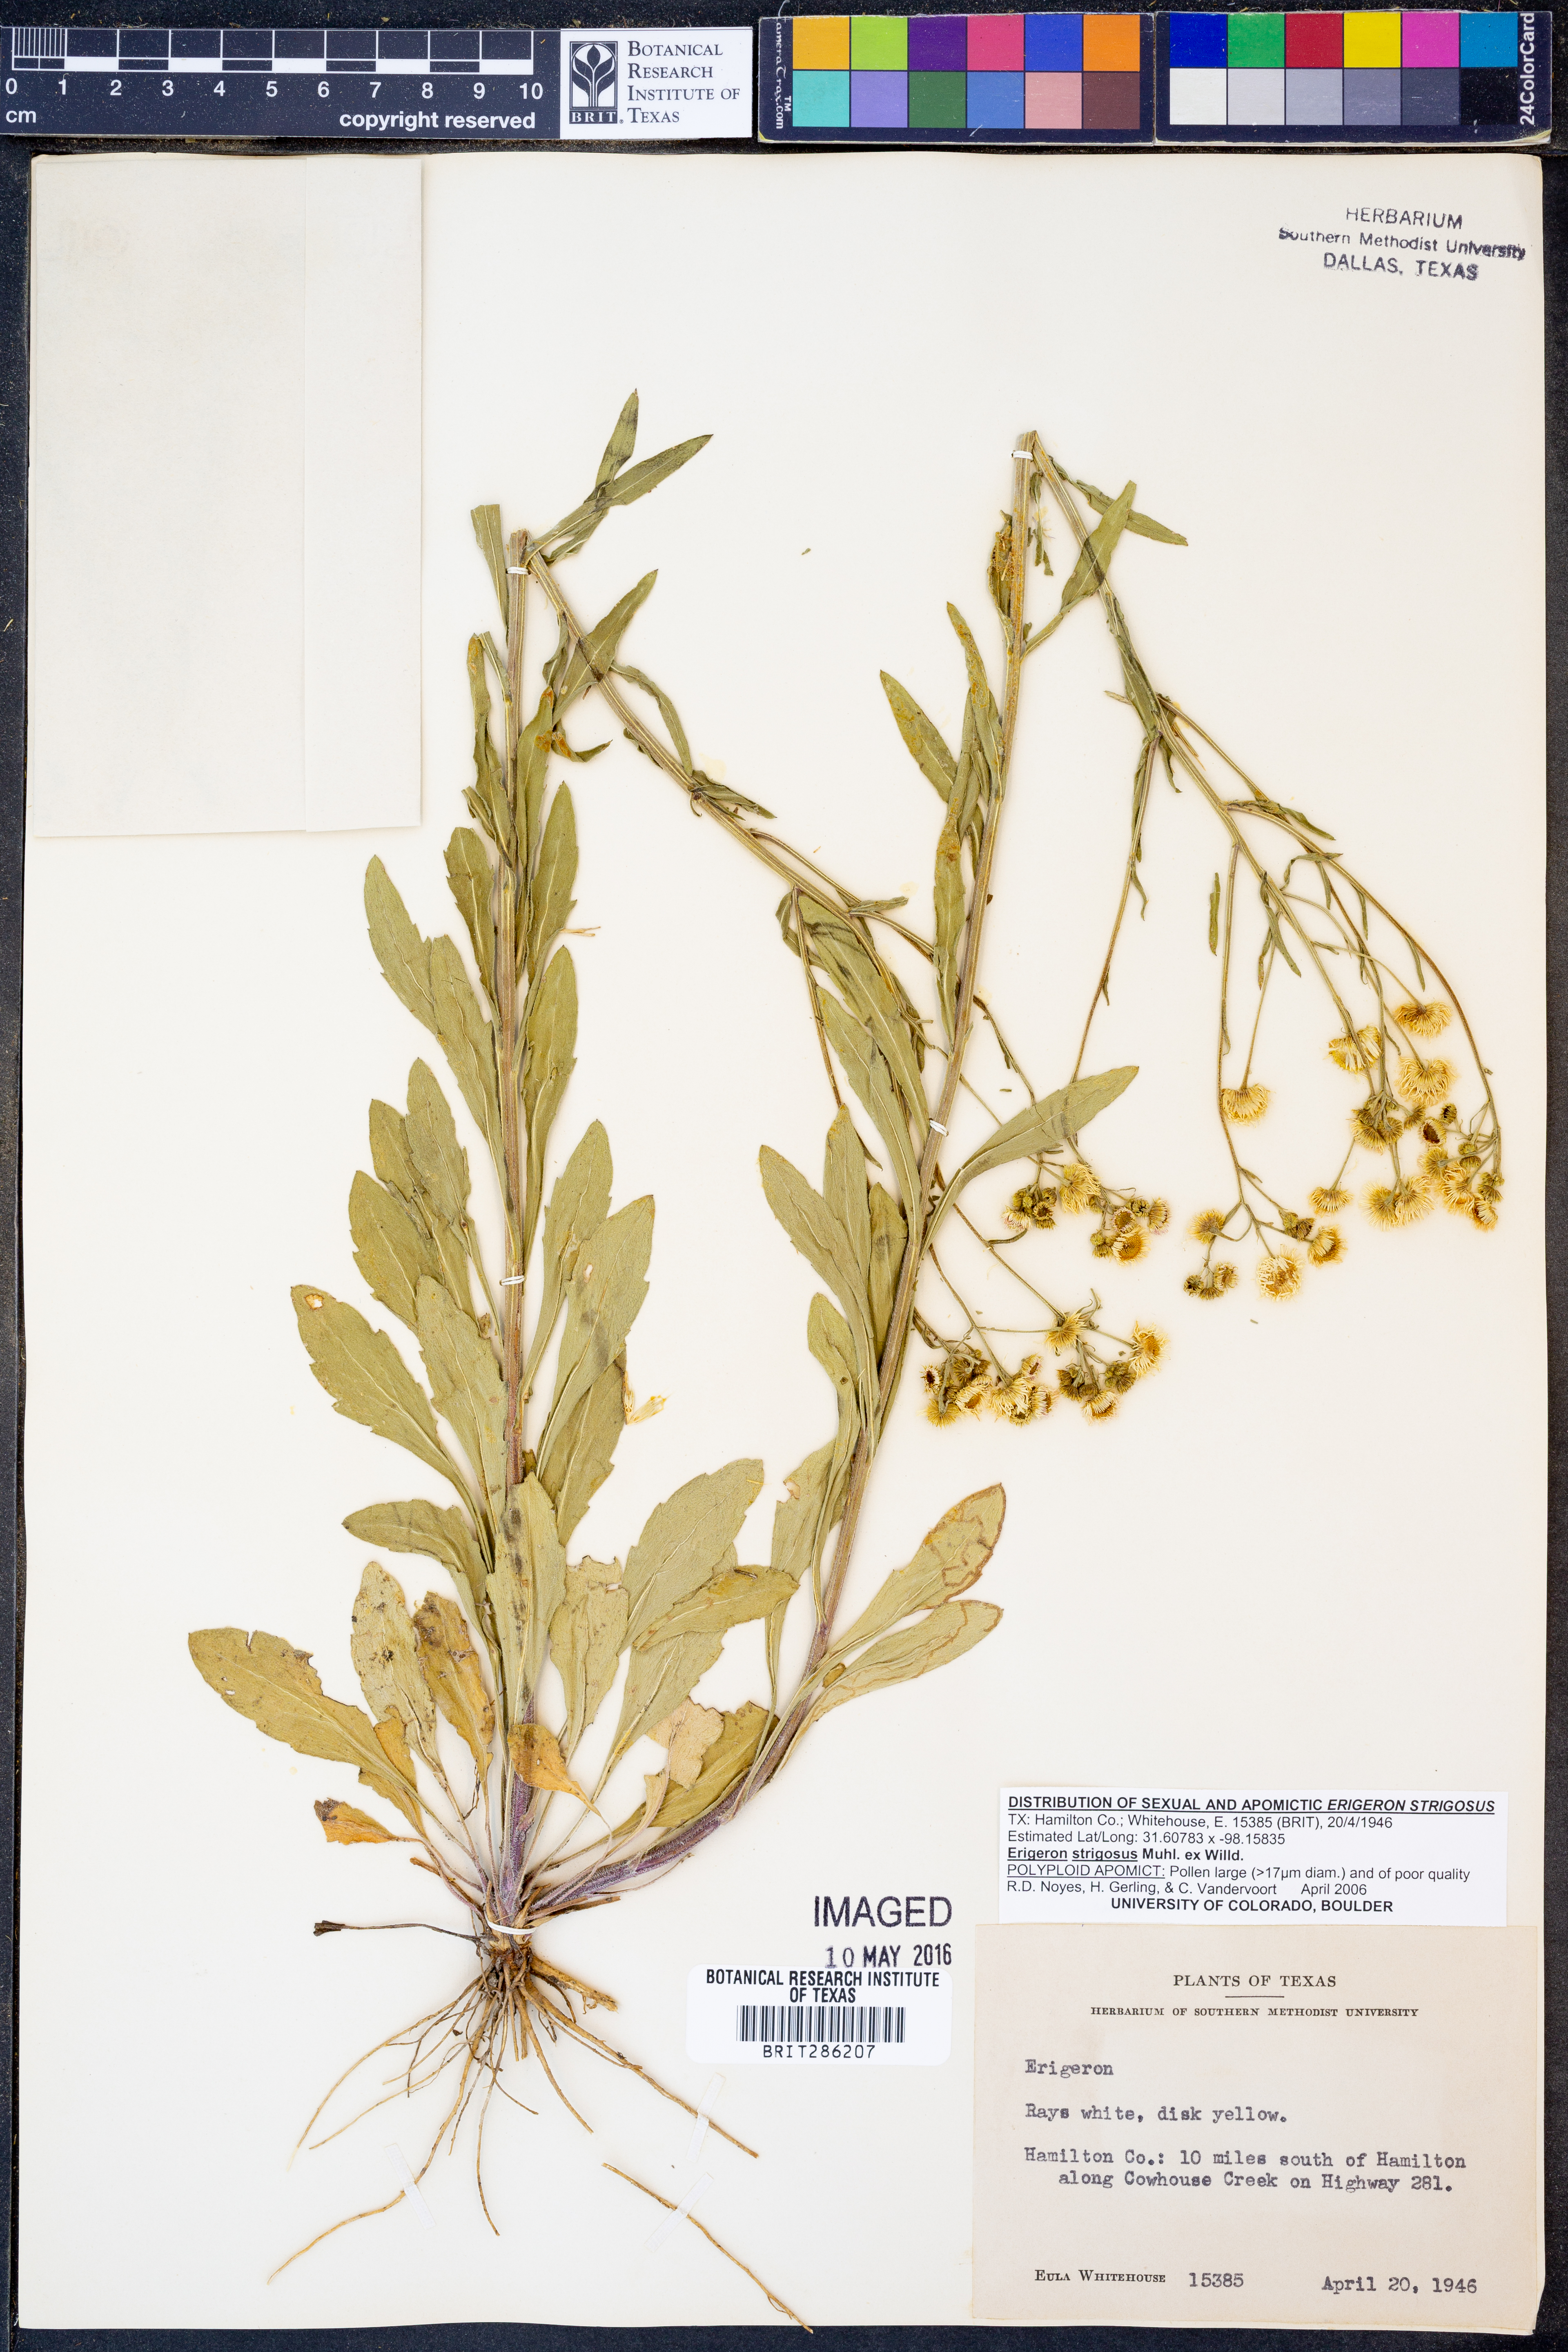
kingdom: Plantae
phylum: Tracheophyta
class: Magnoliopsida
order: Asterales
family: Asteraceae
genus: Erigeron
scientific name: Erigeron strigosus
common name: Common eastern fleabane
